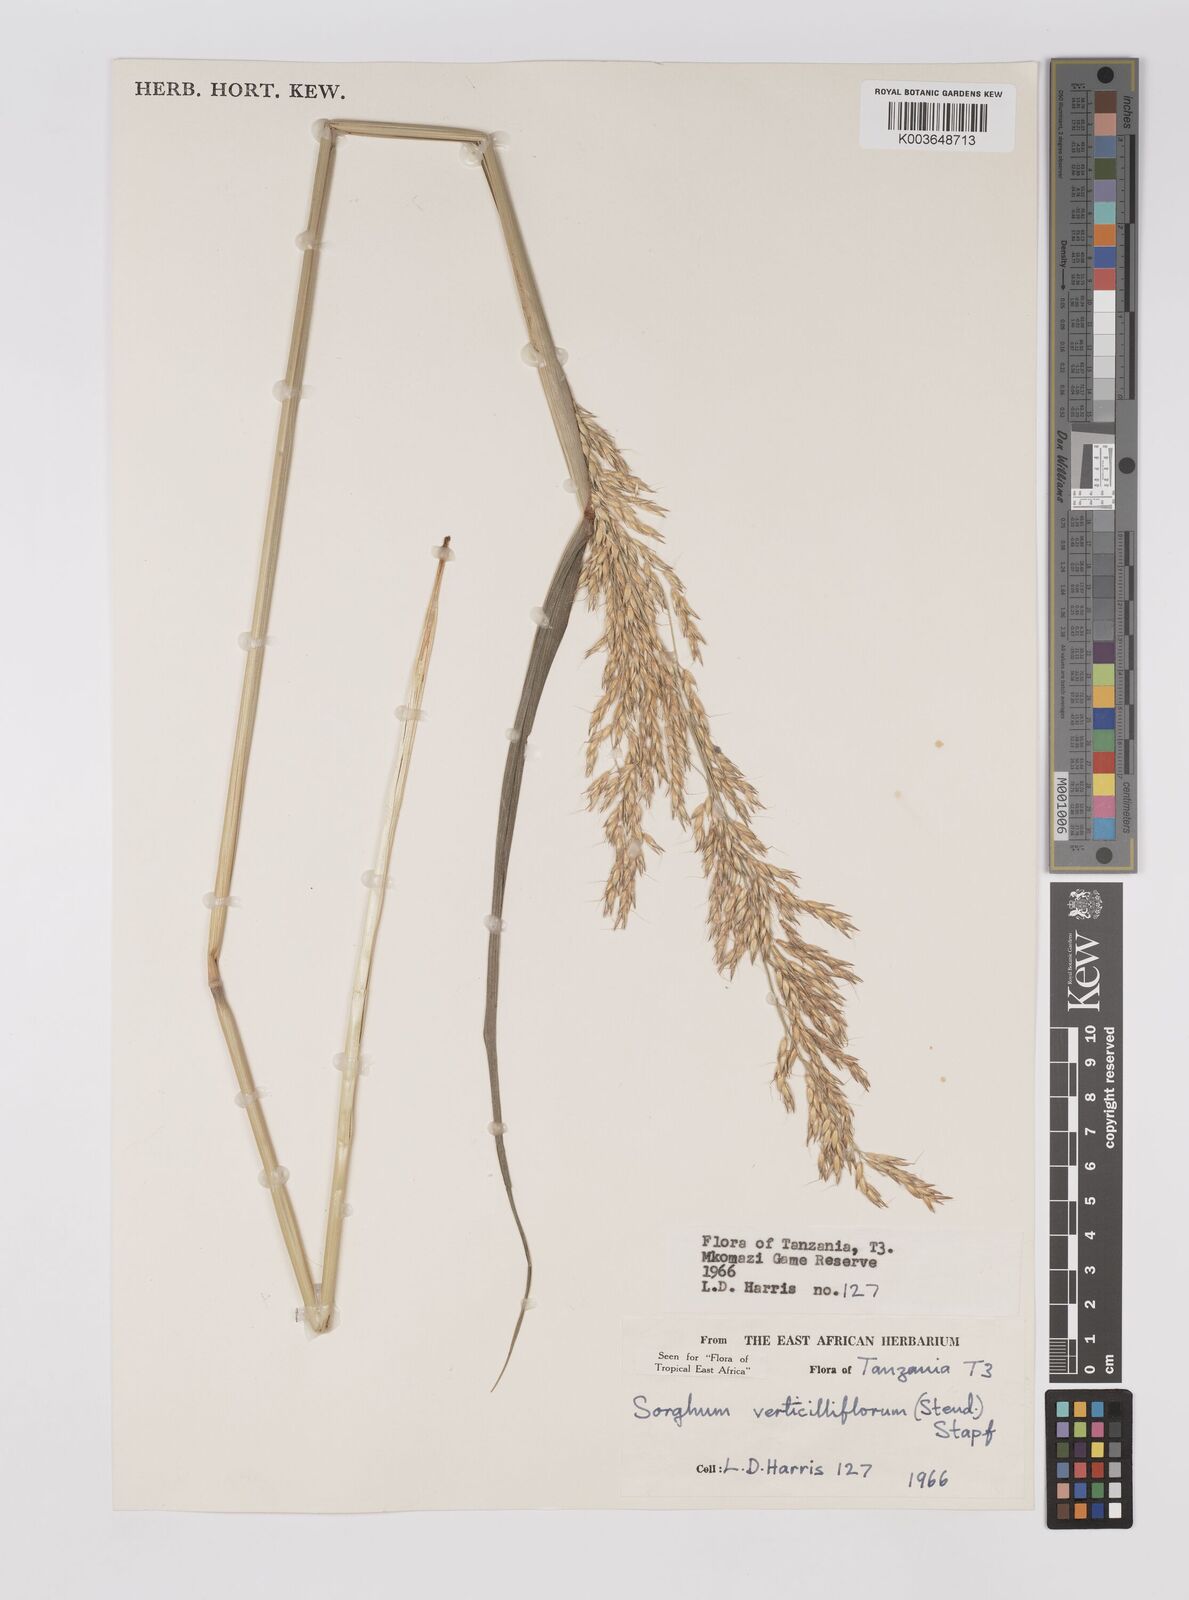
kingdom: Plantae
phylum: Tracheophyta
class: Liliopsida
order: Poales
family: Poaceae
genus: Sorghum
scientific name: Sorghum arundinaceum
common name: Sorghum
